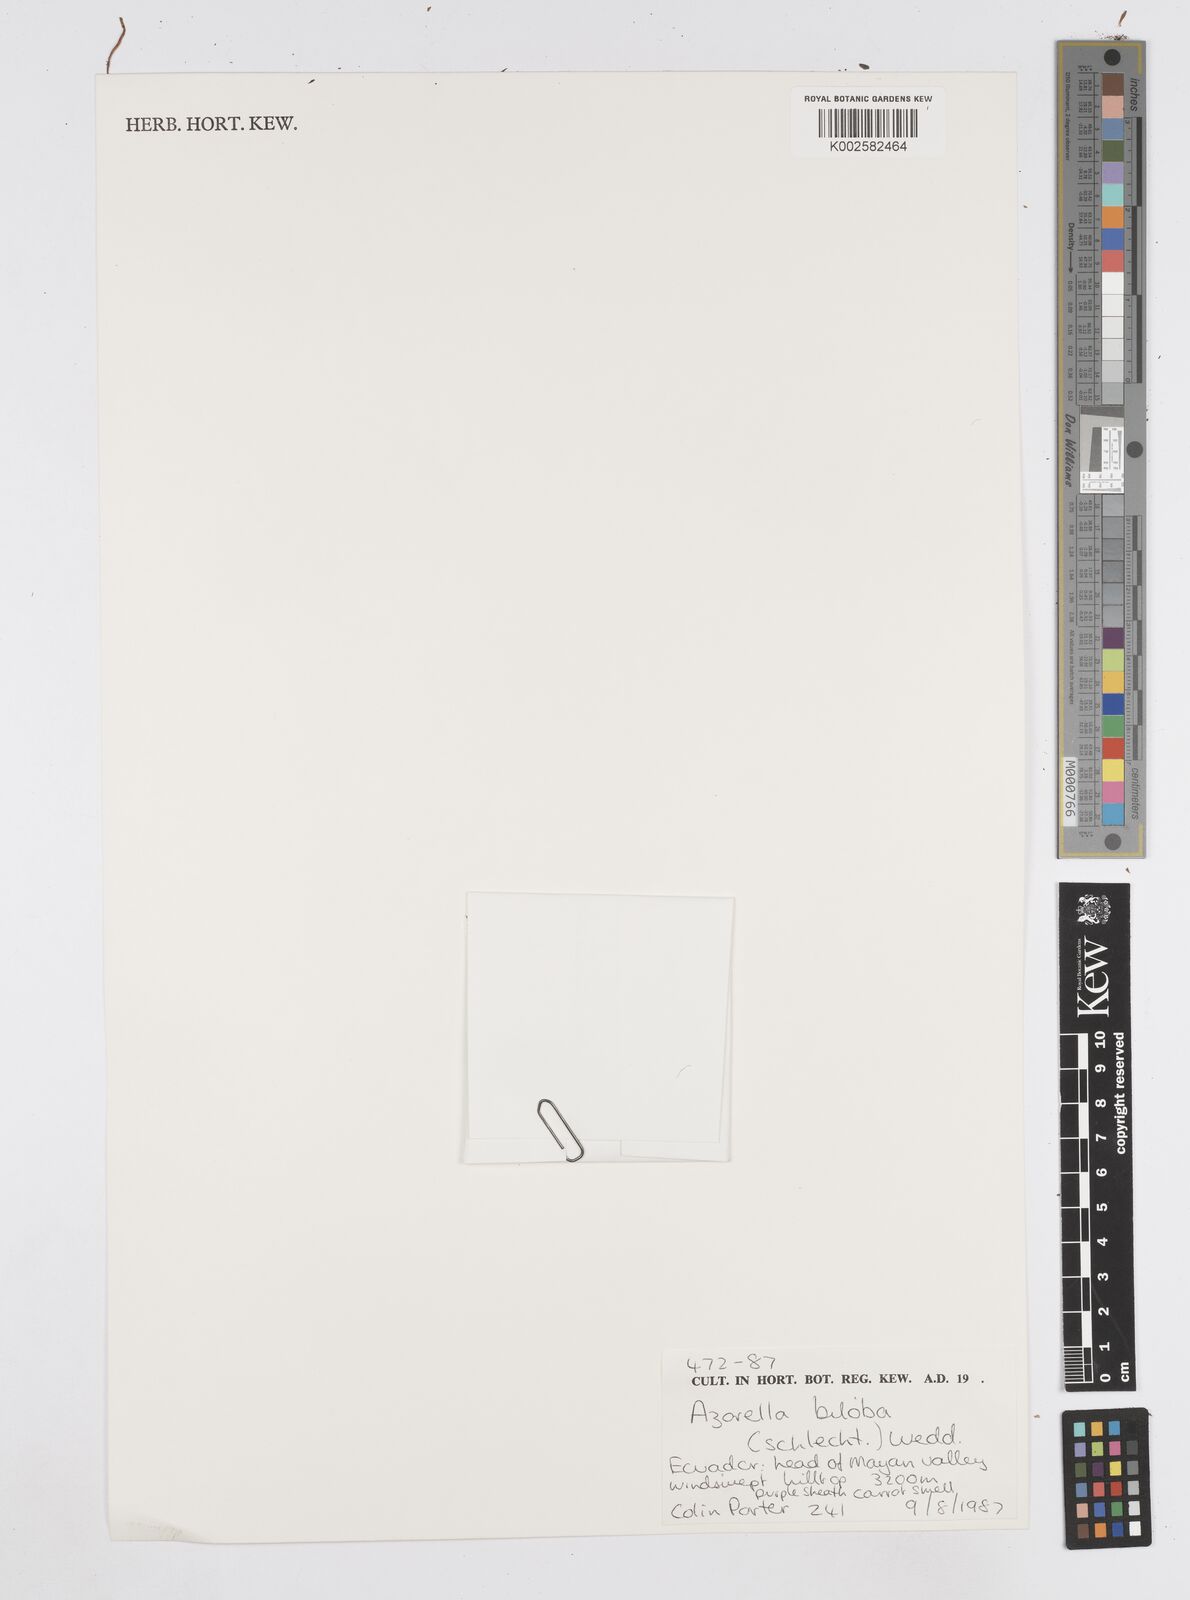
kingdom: Plantae
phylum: Tracheophyta
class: Magnoliopsida
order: Apiales
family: Apiaceae
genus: Azorella
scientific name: Azorella biloba
